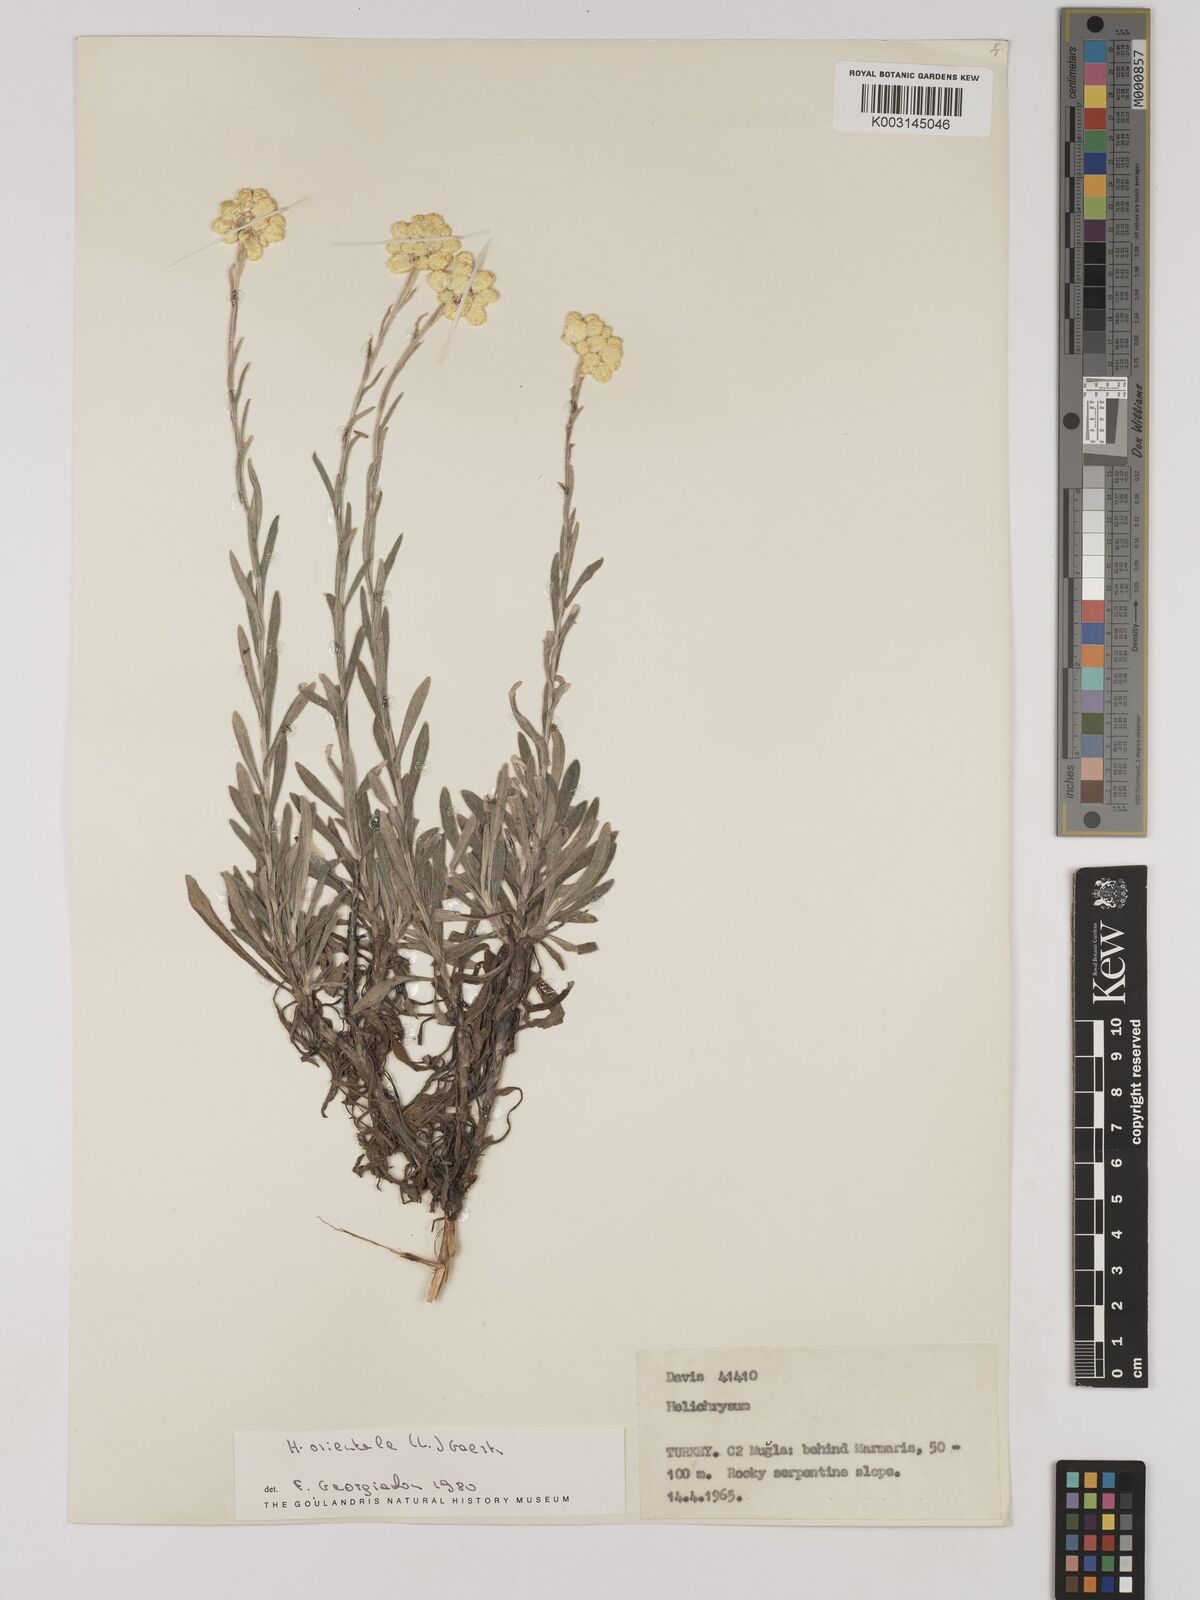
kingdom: Plantae
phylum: Tracheophyta
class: Magnoliopsida
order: Asterales
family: Asteraceae
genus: Helichrysum
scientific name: Helichrysum orientale
